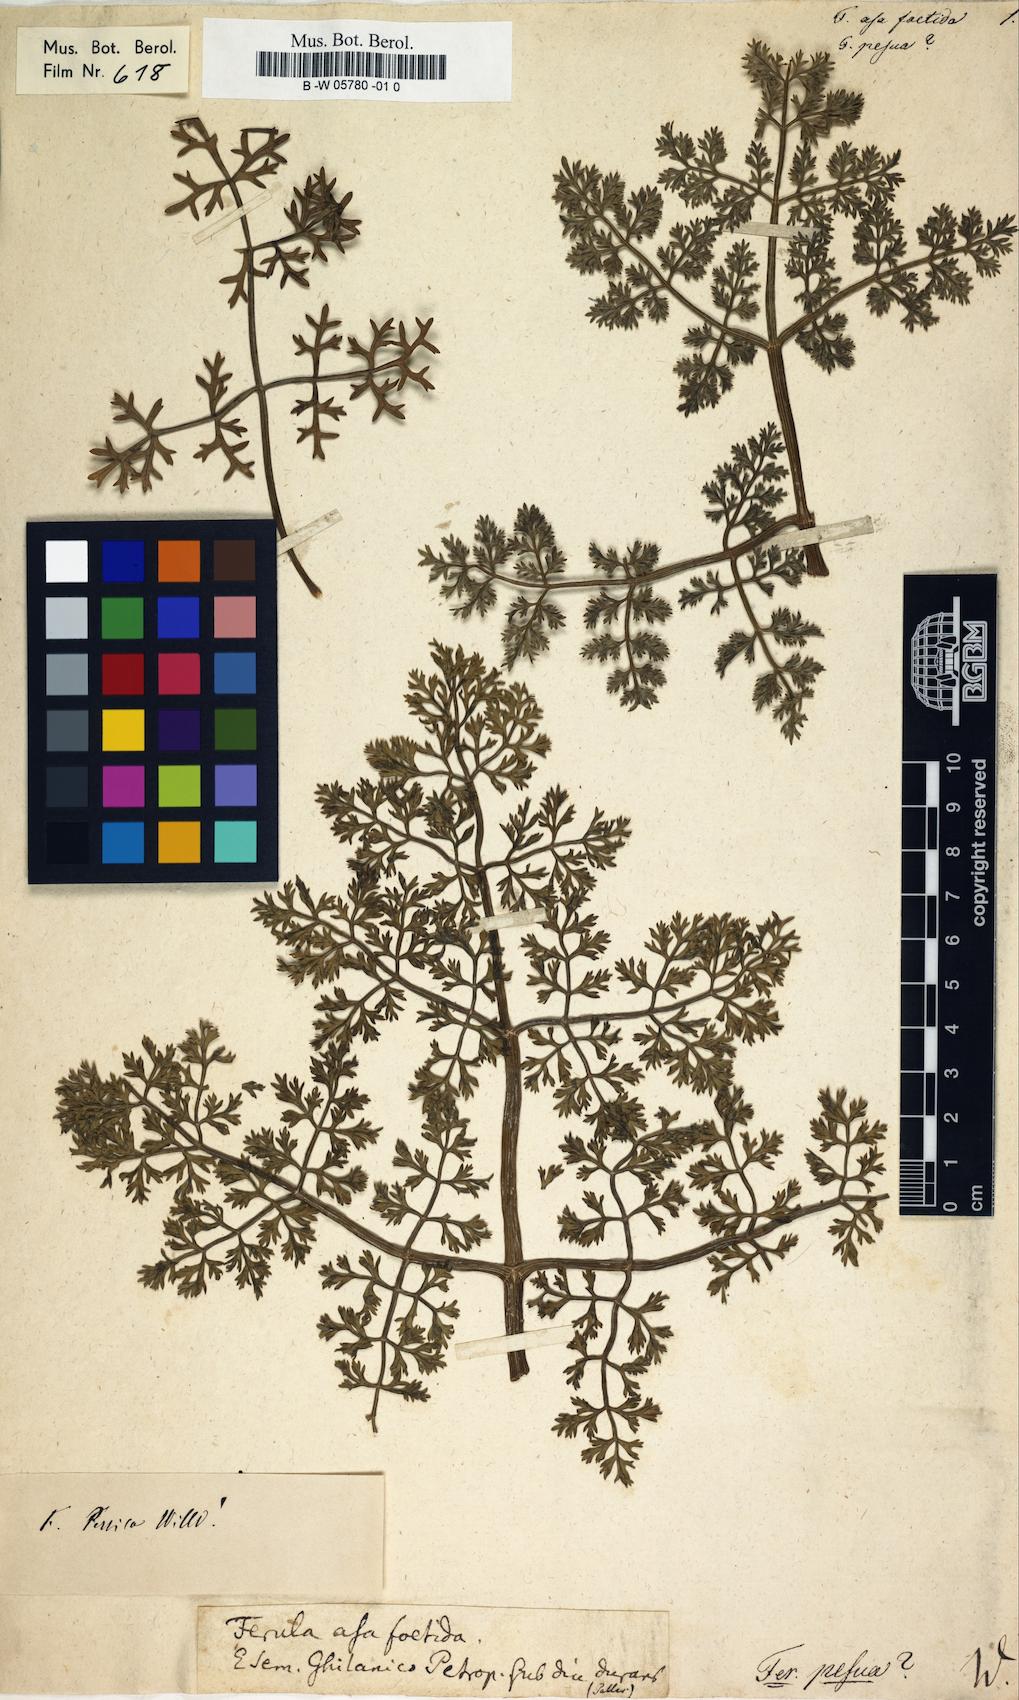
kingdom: Plantae
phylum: Tracheophyta
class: Magnoliopsida
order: Apiales
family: Apiaceae
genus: Ferula
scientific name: Ferula asa-foetida
